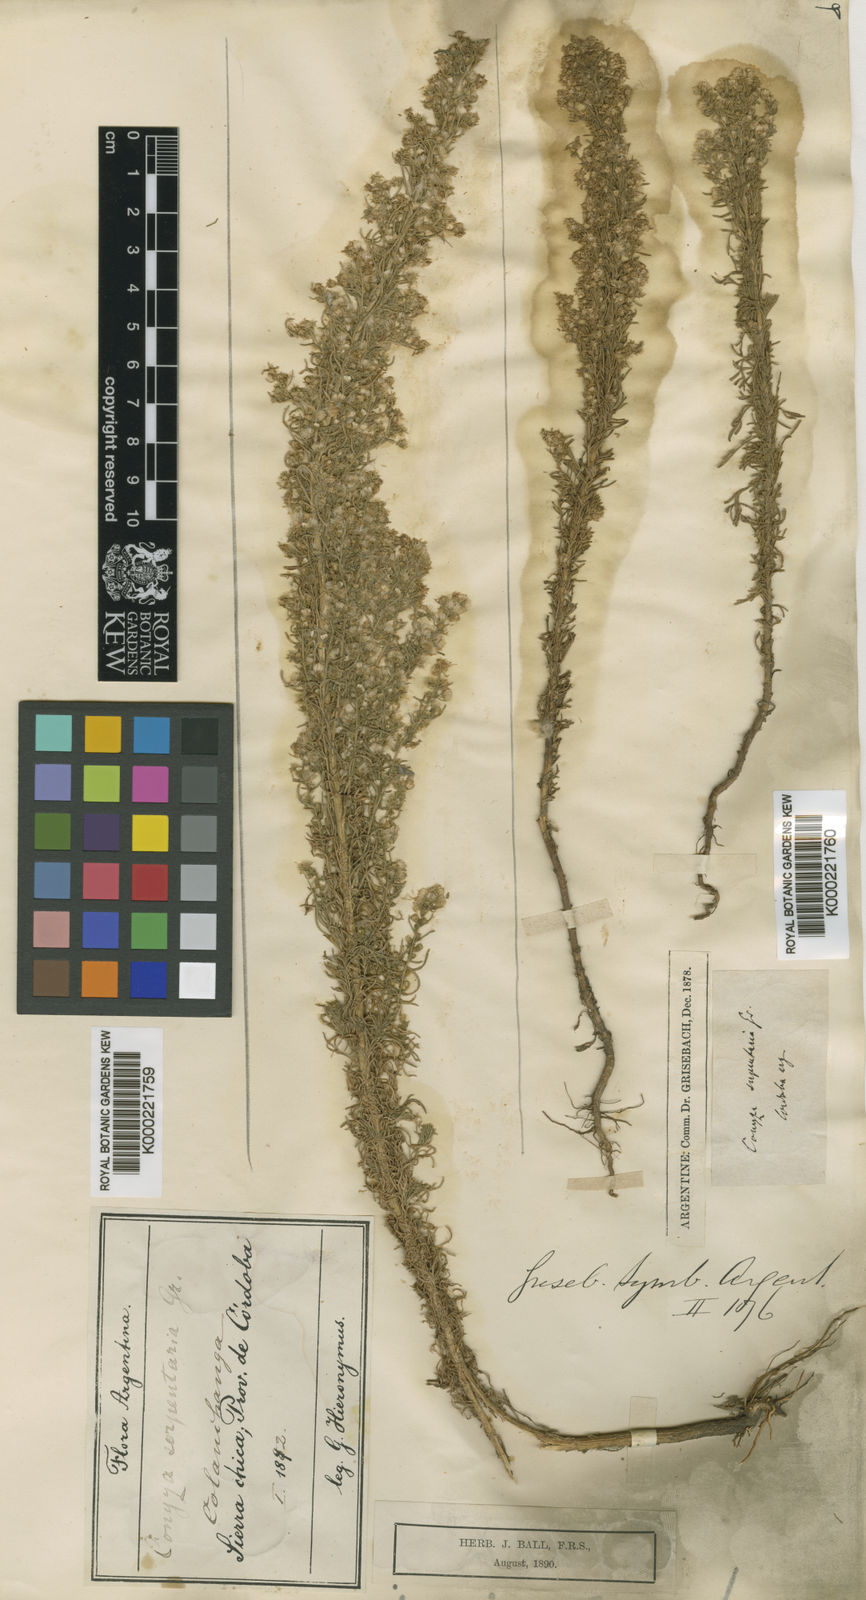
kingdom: Plantae
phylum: Tracheophyta
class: Magnoliopsida
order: Asterales
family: Asteraceae
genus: Laennecia
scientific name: Laennecia sophiifolia
